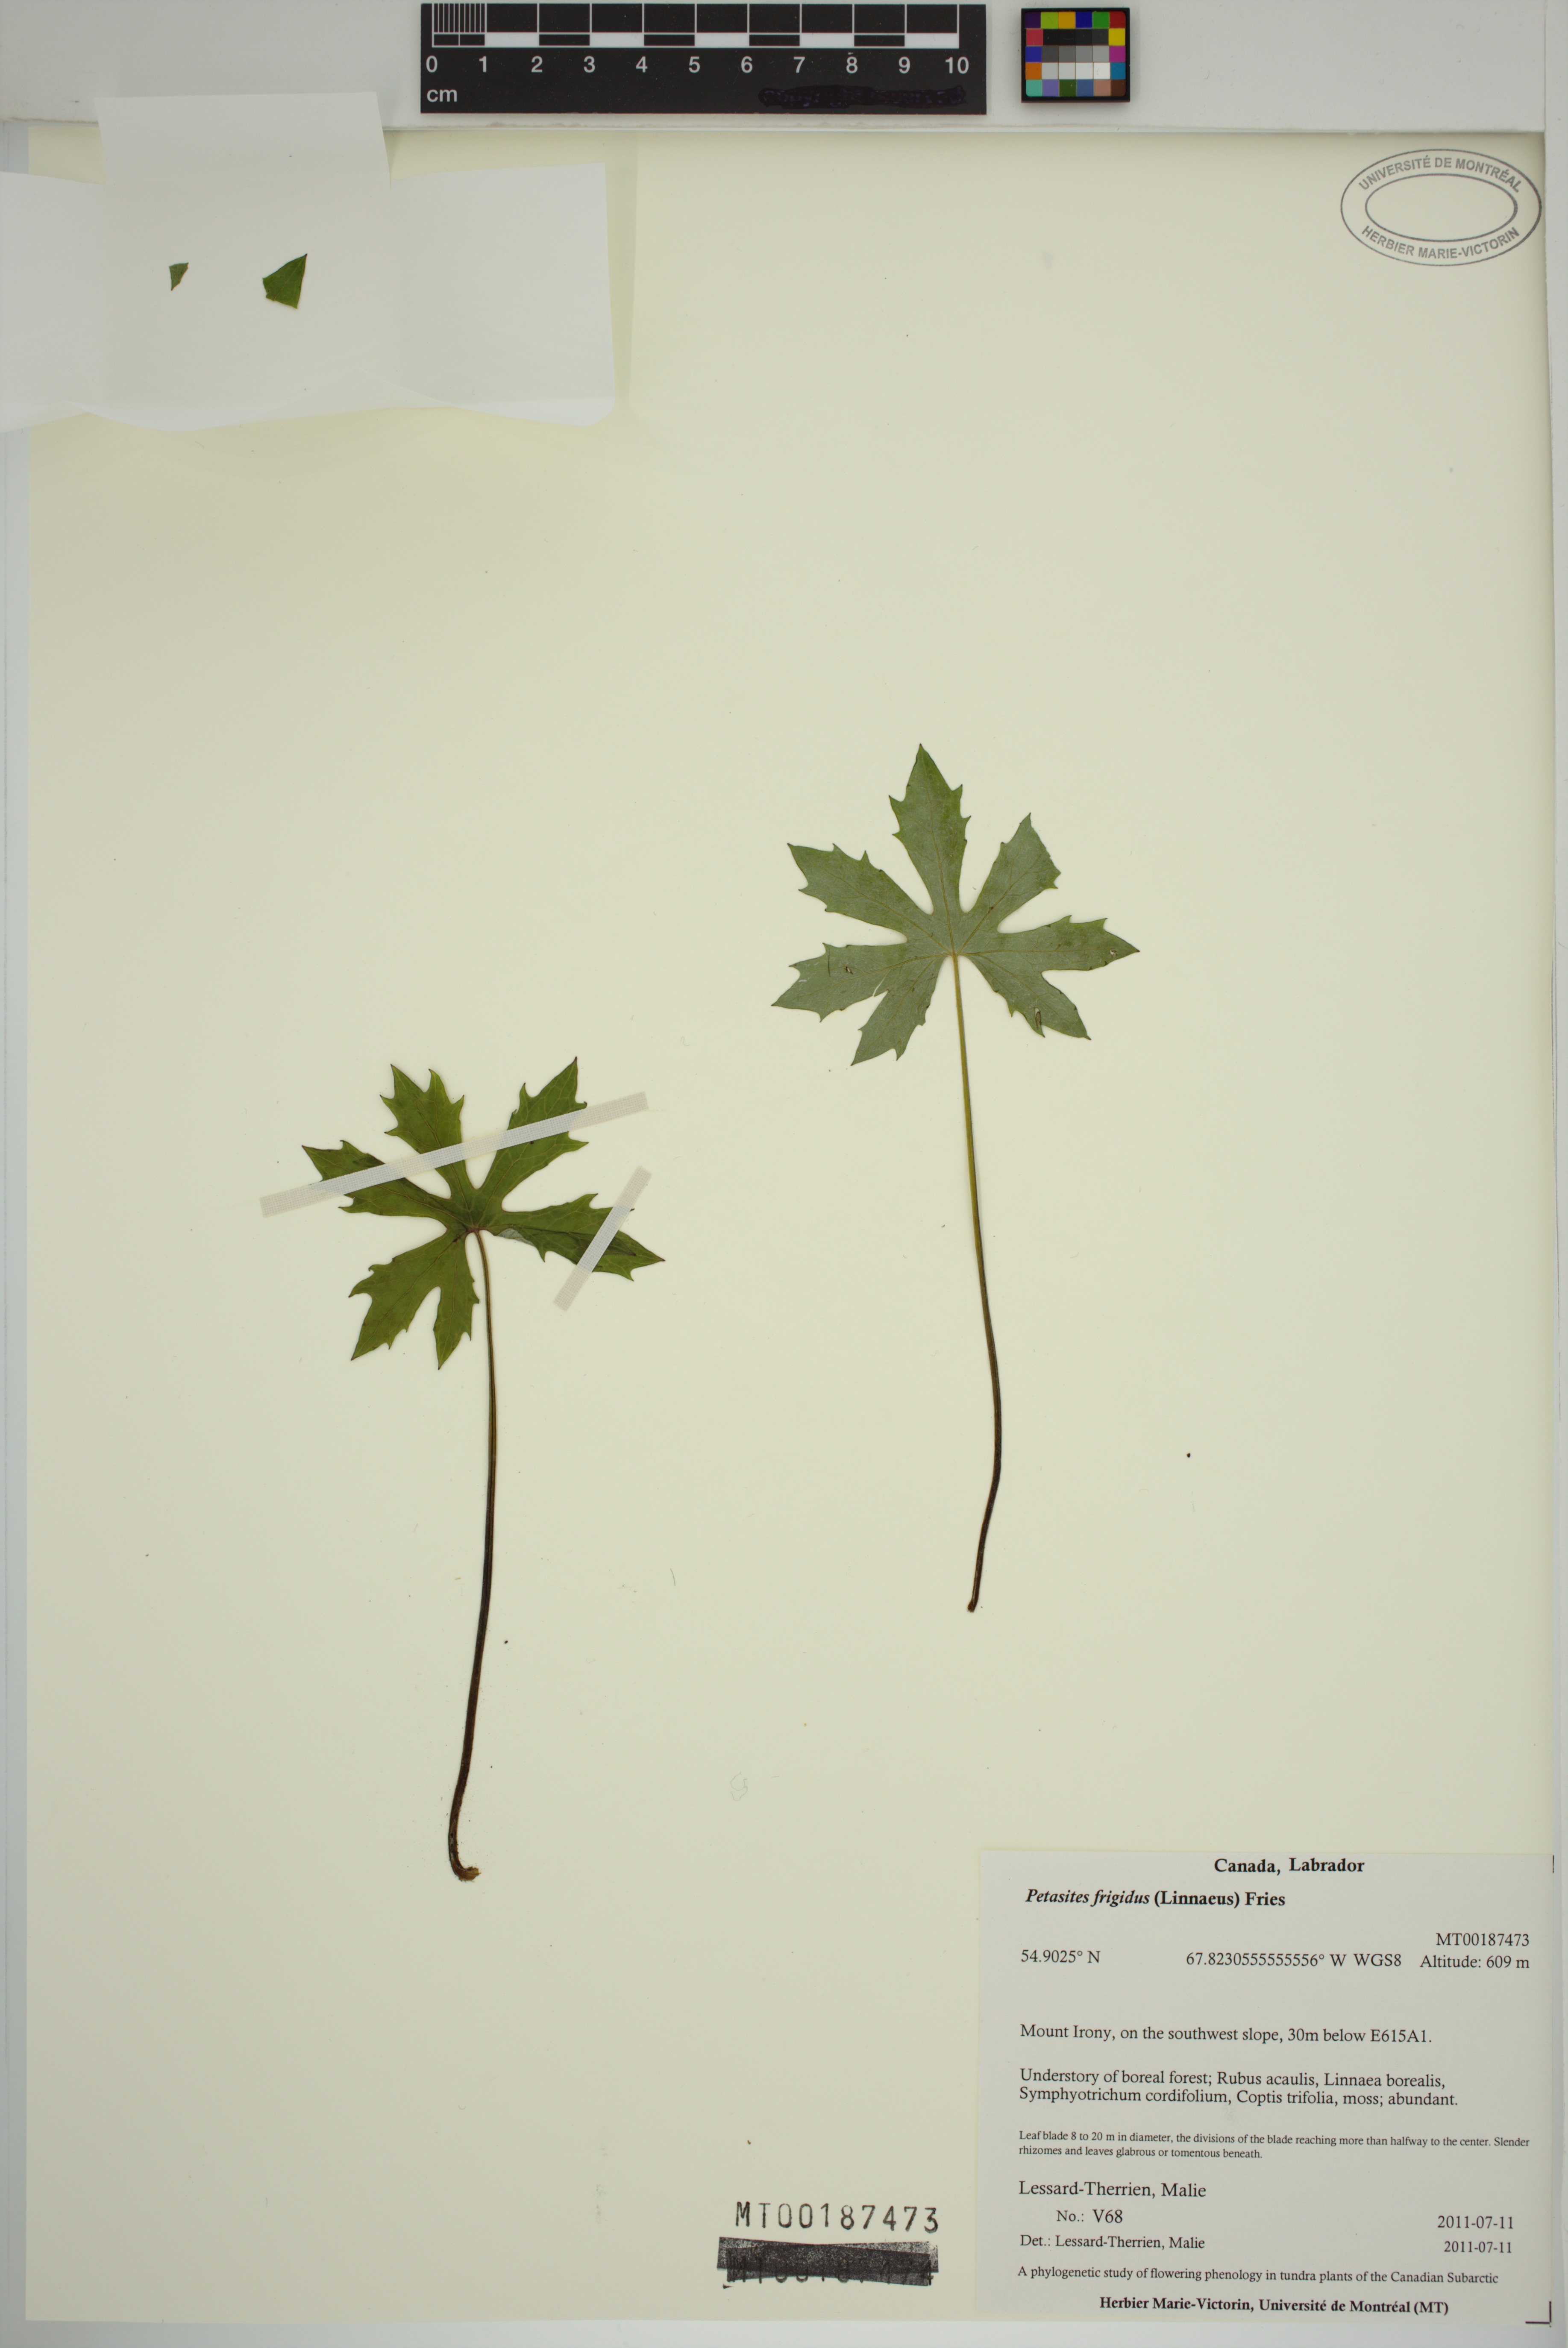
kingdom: Plantae
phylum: Tracheophyta
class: Magnoliopsida
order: Asterales
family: Asteraceae
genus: Petasites
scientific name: Petasites frigidus
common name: Arctic butterbur
